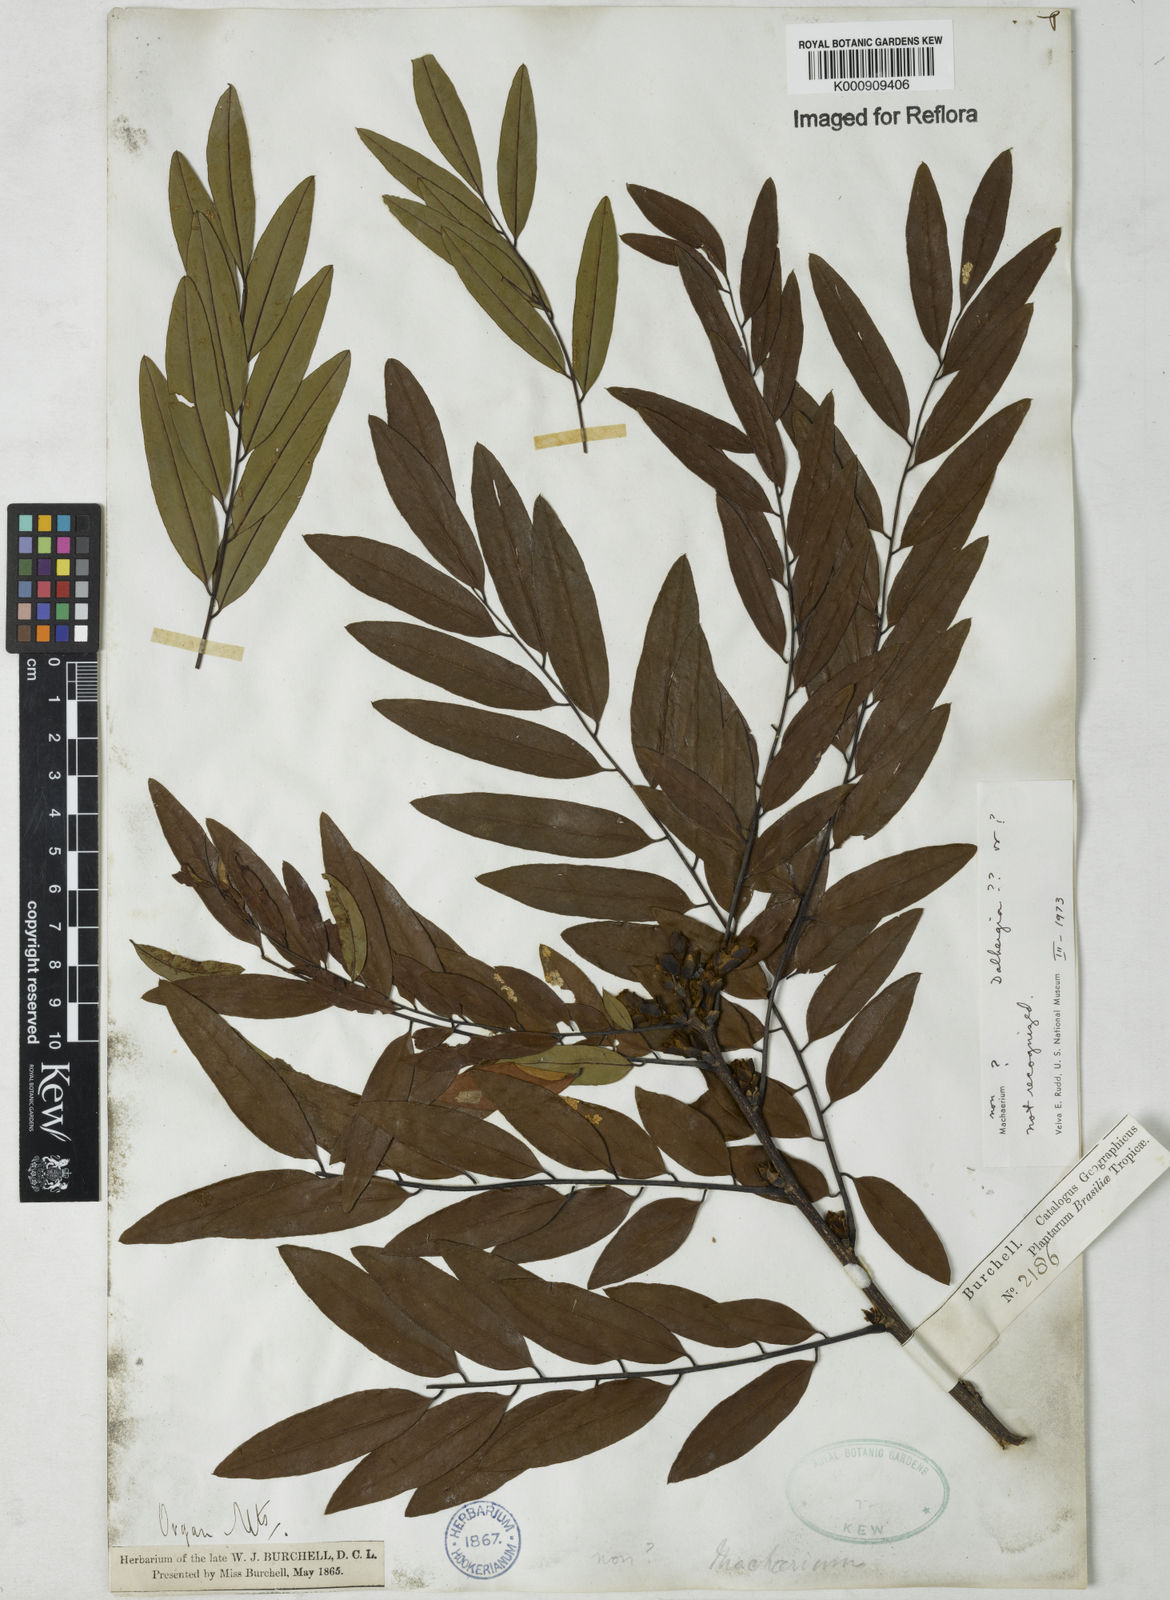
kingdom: Plantae
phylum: Tracheophyta
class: Magnoliopsida
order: Fabales
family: Fabaceae
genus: Dalbergia
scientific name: Dalbergia
